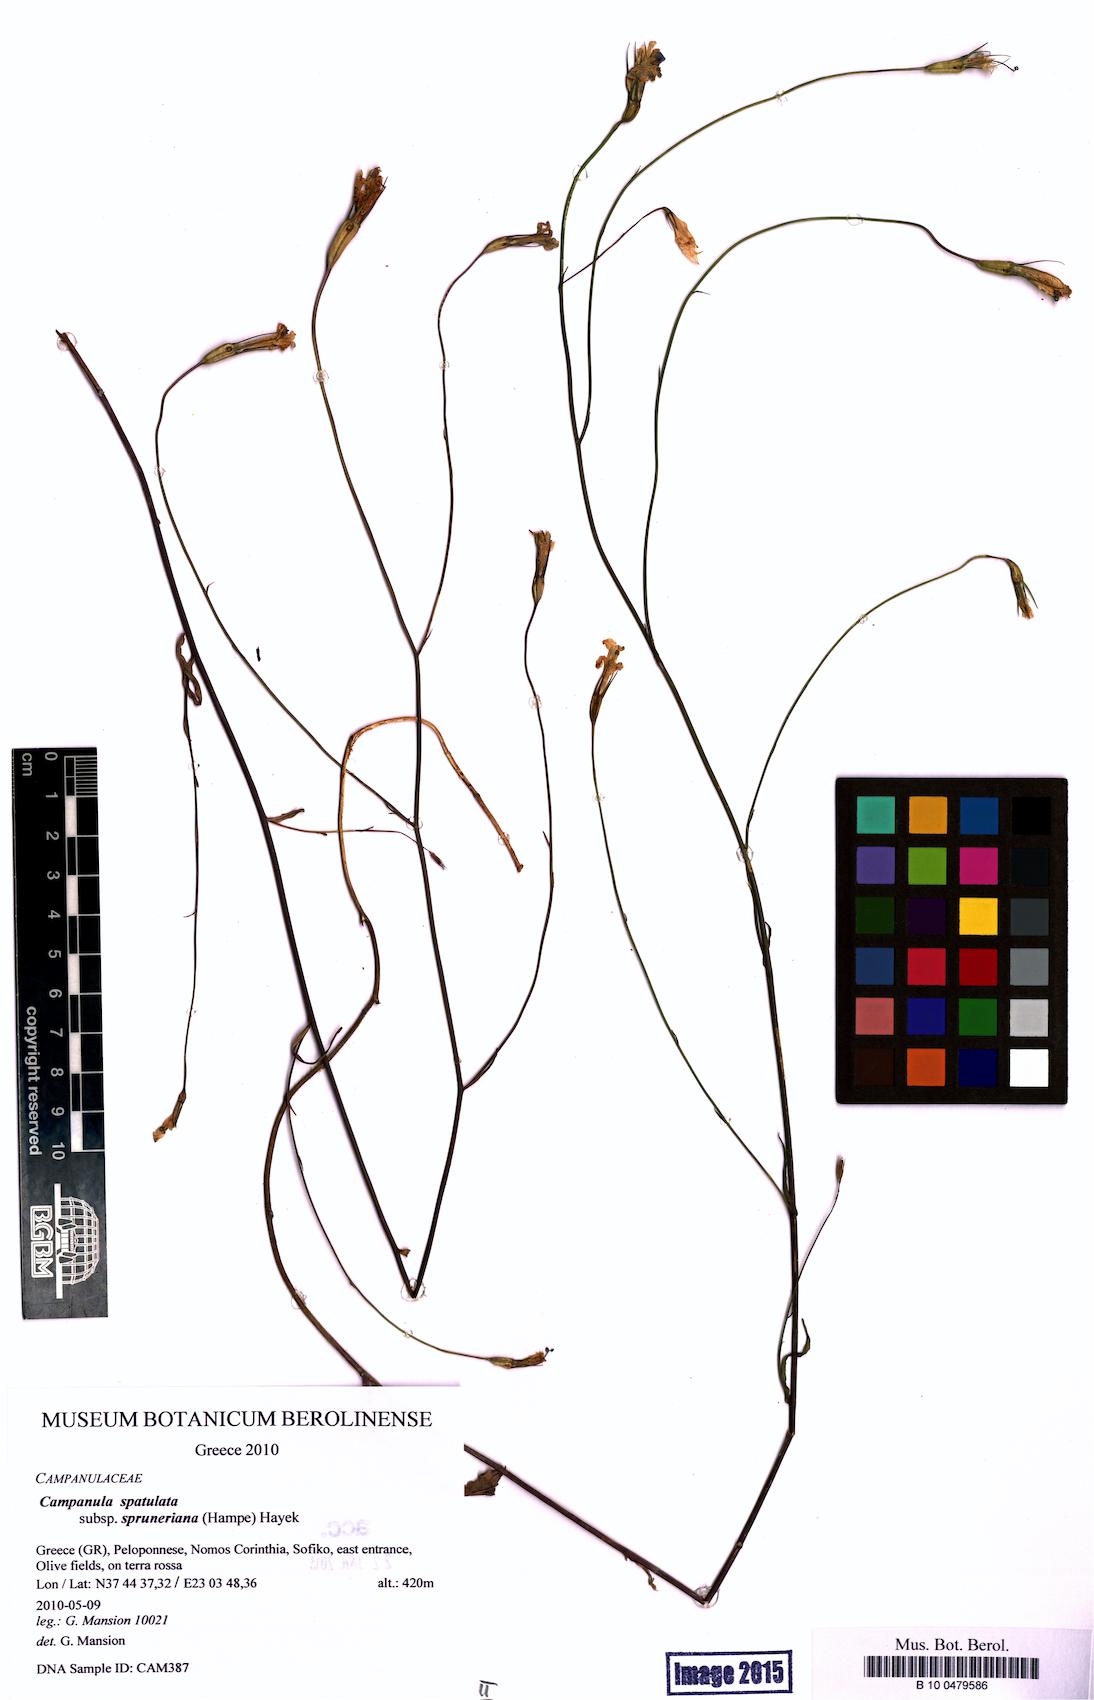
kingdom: Plantae
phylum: Tracheophyta
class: Magnoliopsida
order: Asterales
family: Campanulaceae
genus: Campanula
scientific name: Campanula spatulata
